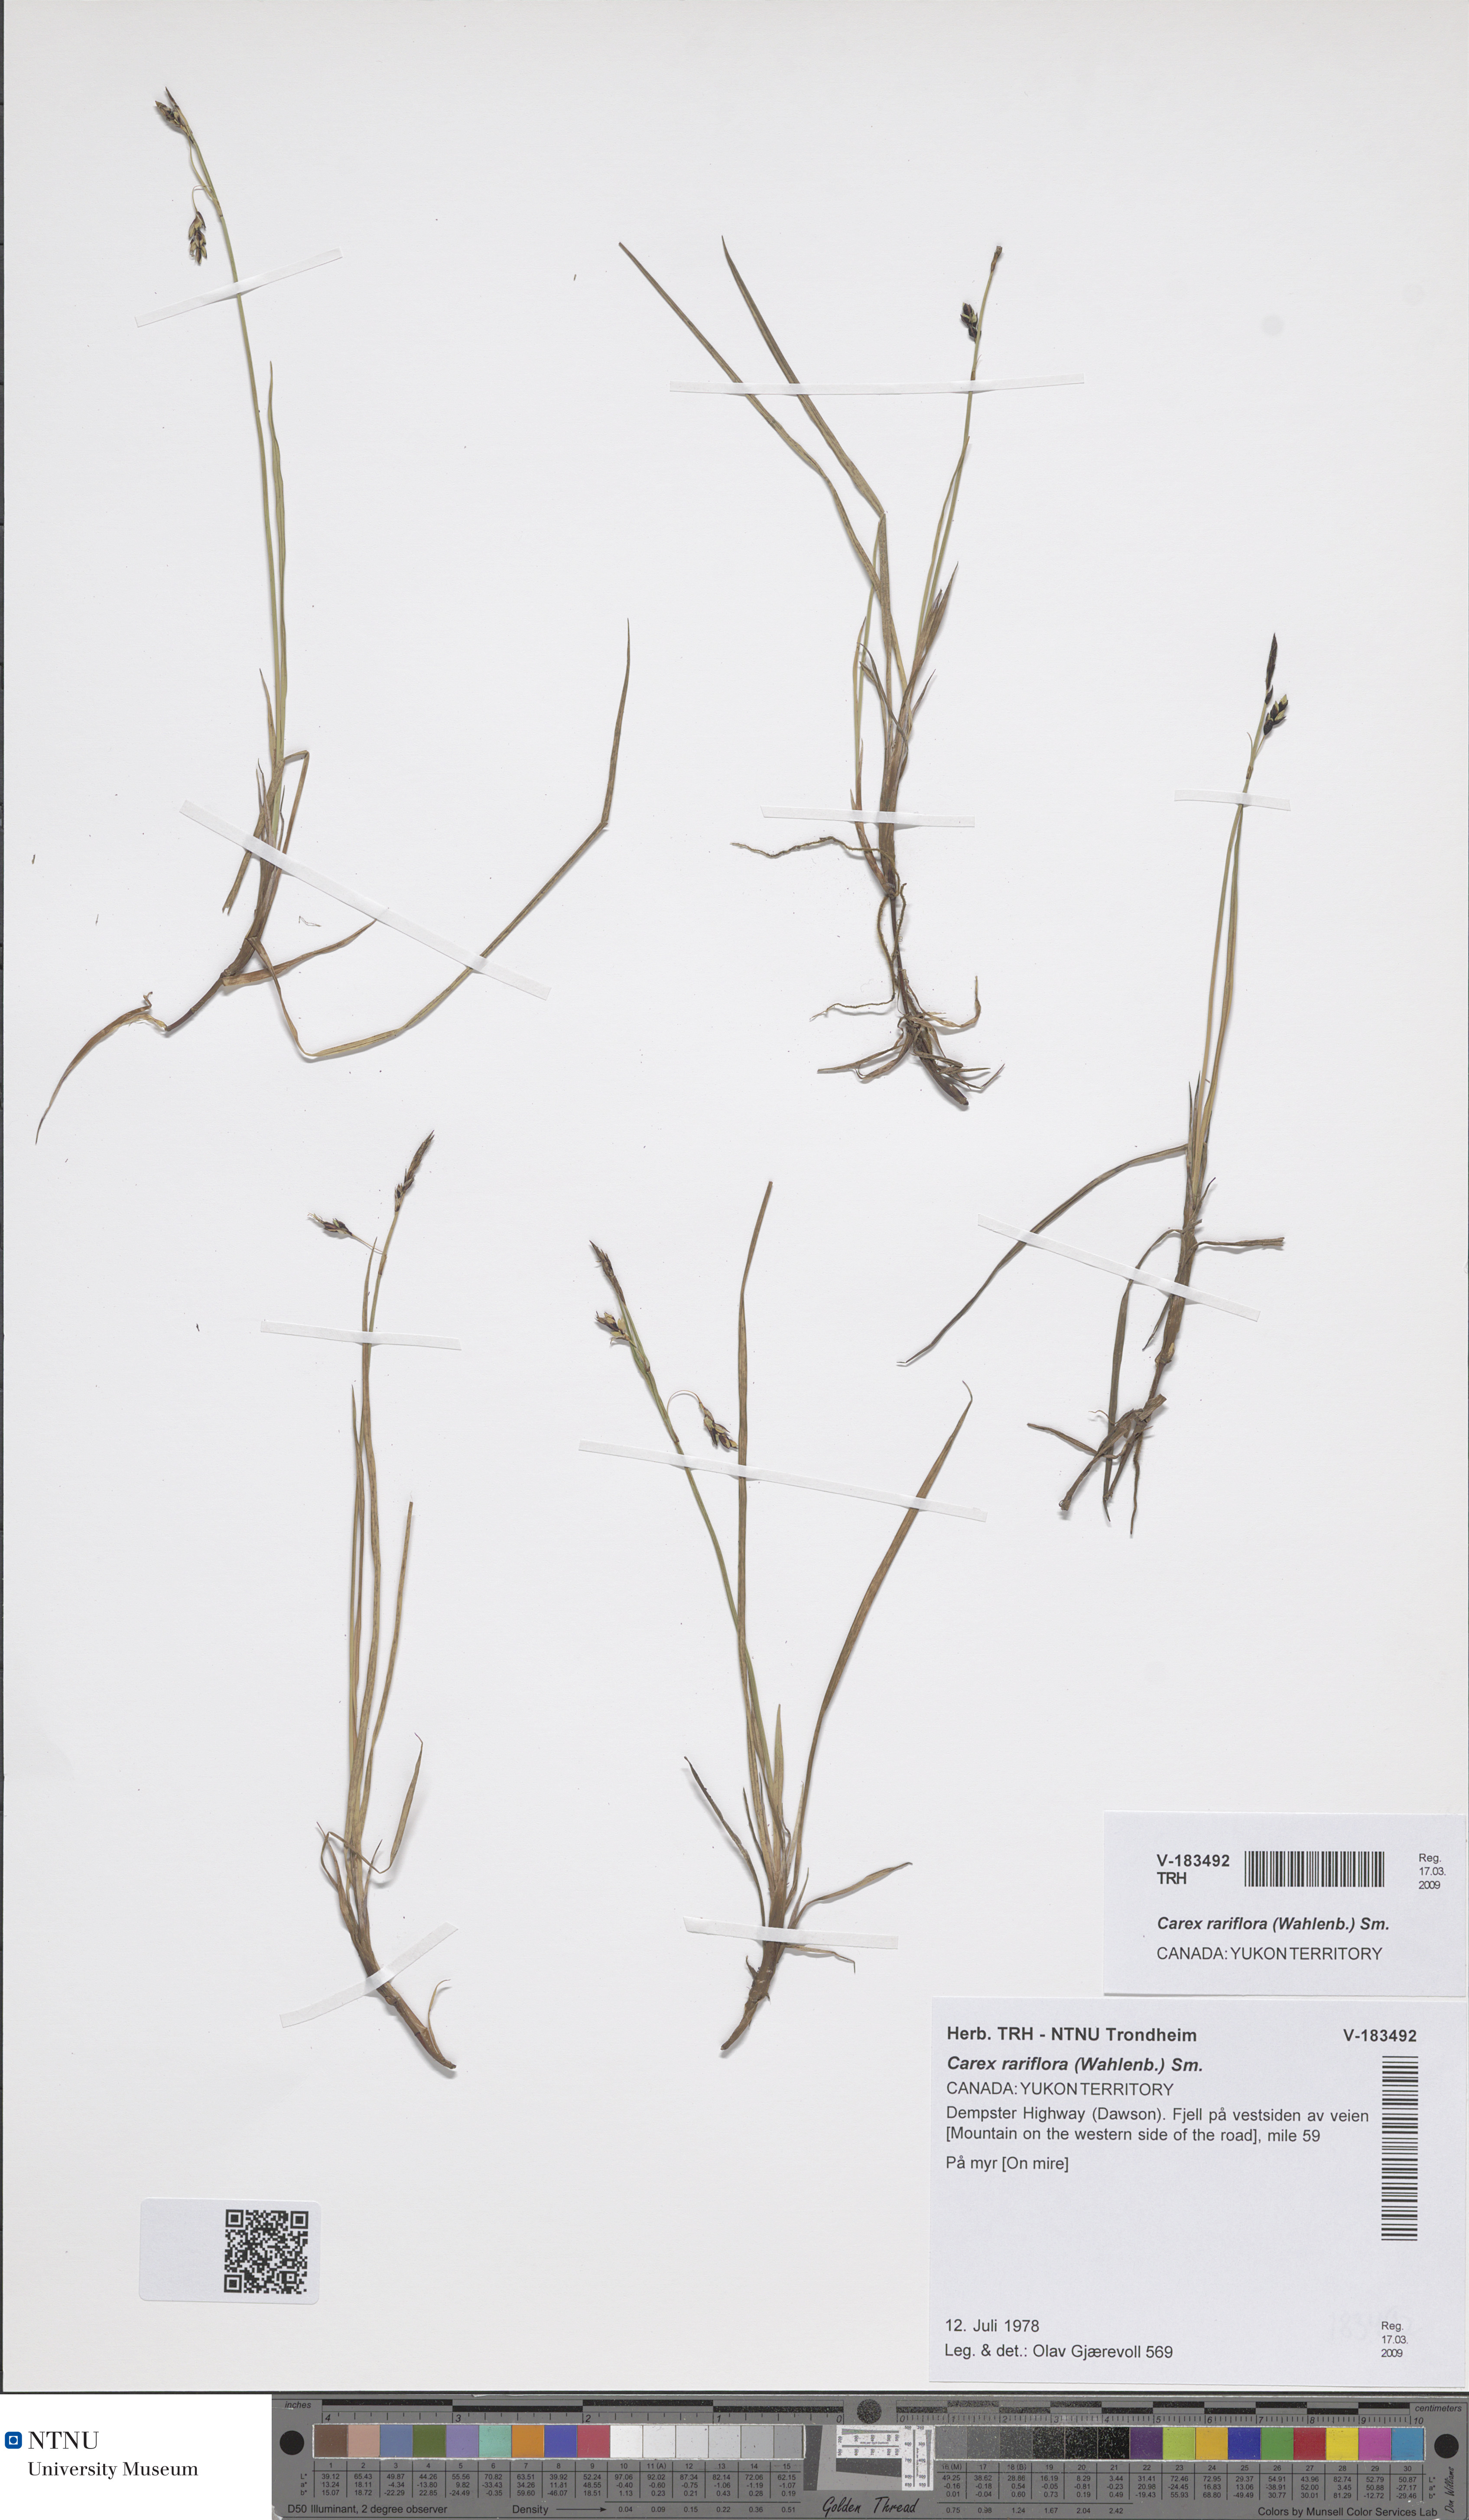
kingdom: Plantae
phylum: Tracheophyta
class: Liliopsida
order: Poales
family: Cyperaceae
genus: Carex
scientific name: Carex rariflora
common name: Loose-flowered alpine sedge
